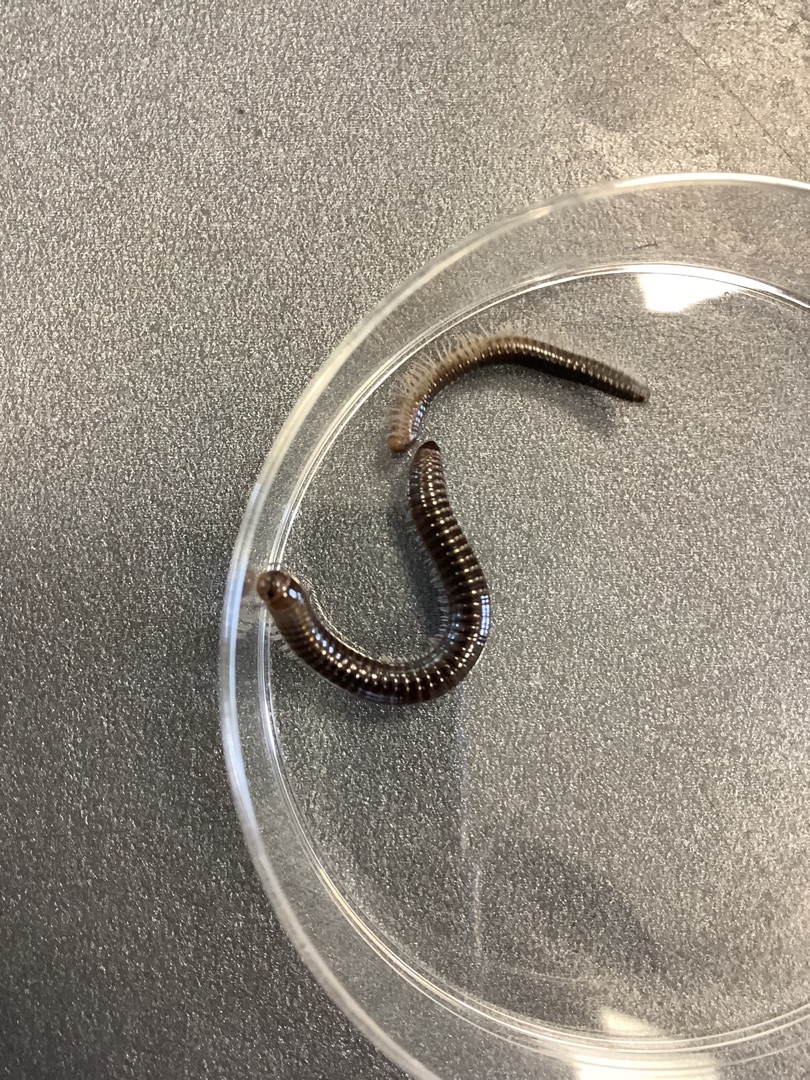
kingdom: Animalia
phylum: Arthropoda
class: Diplopoda
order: Julida
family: Julidae
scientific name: Julidae
